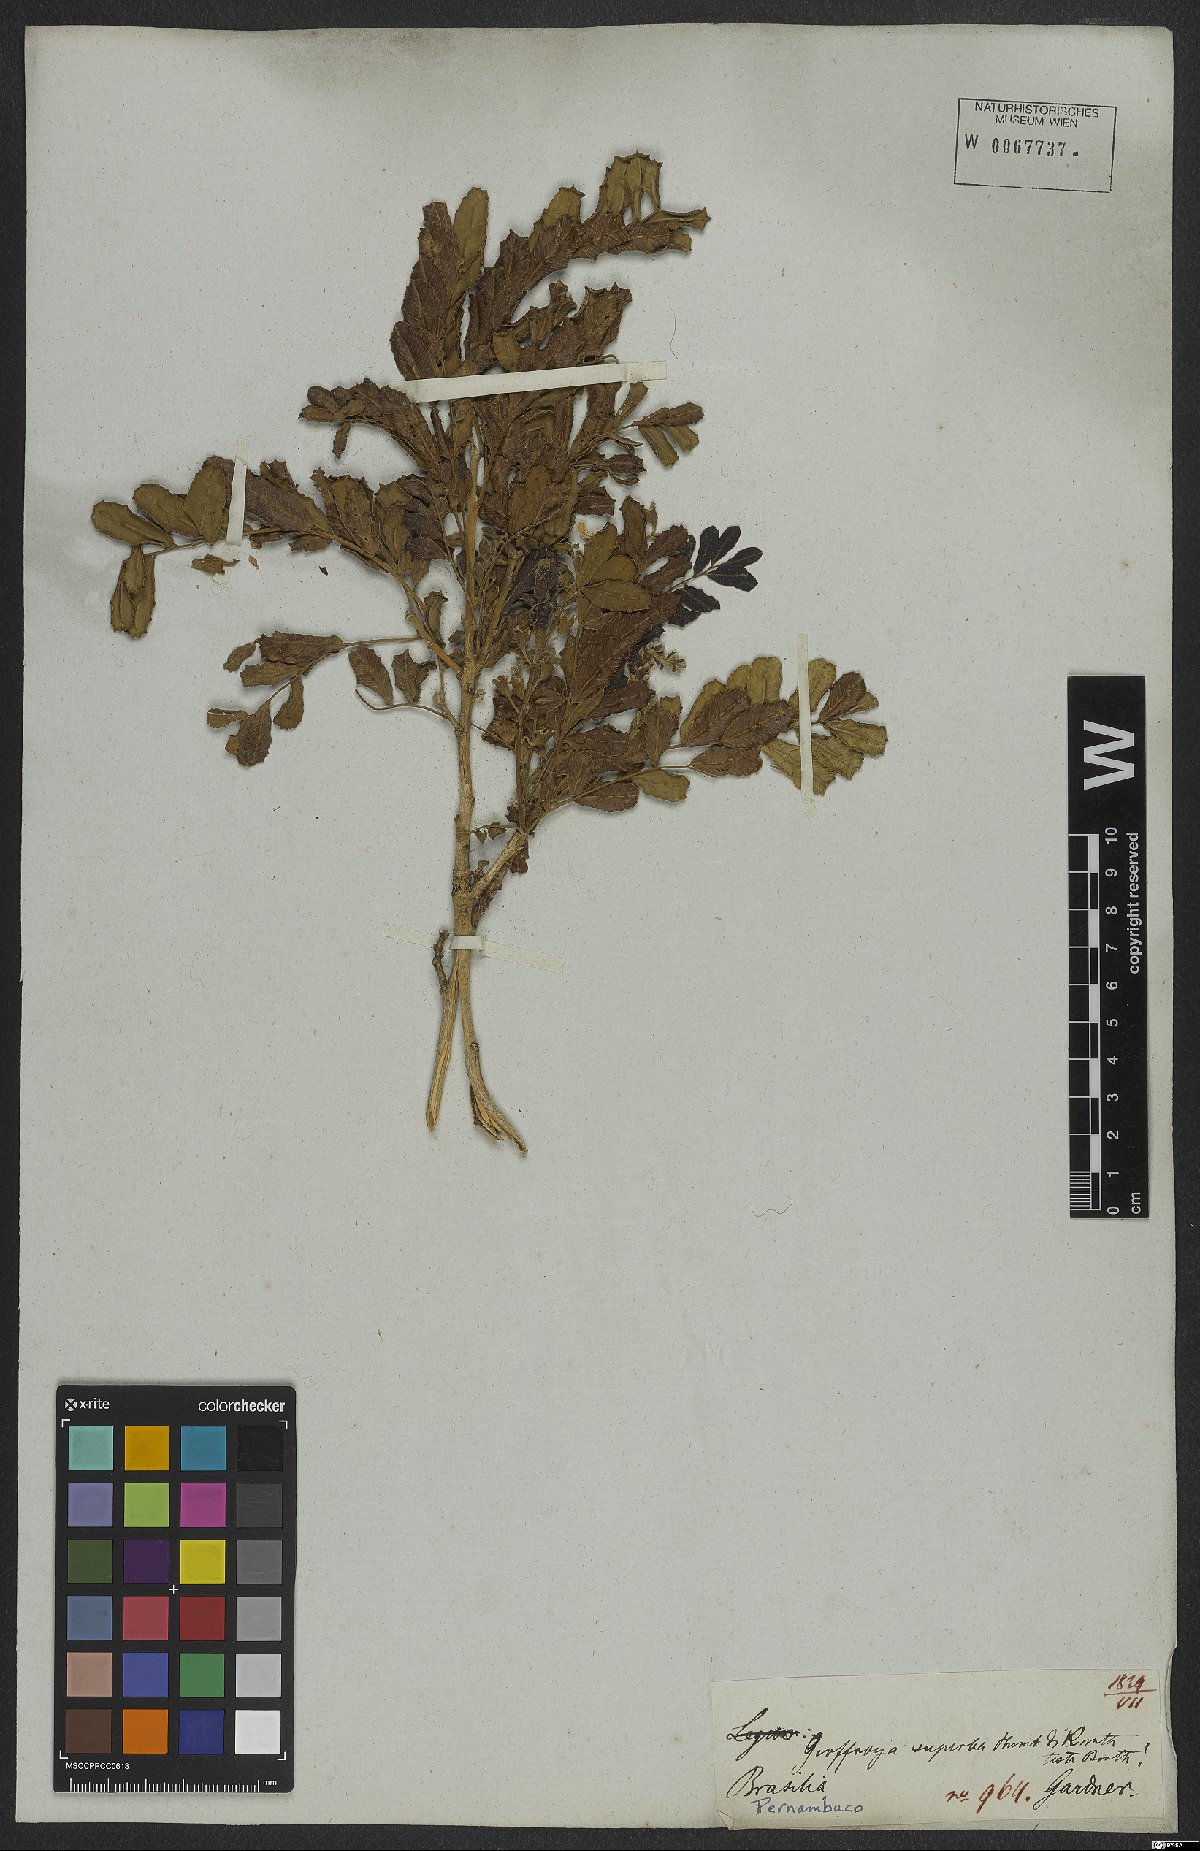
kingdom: Plantae
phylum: Tracheophyta
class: Magnoliopsida
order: Fabales
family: Fabaceae
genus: Geoffroea
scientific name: Geoffroea spinosa
